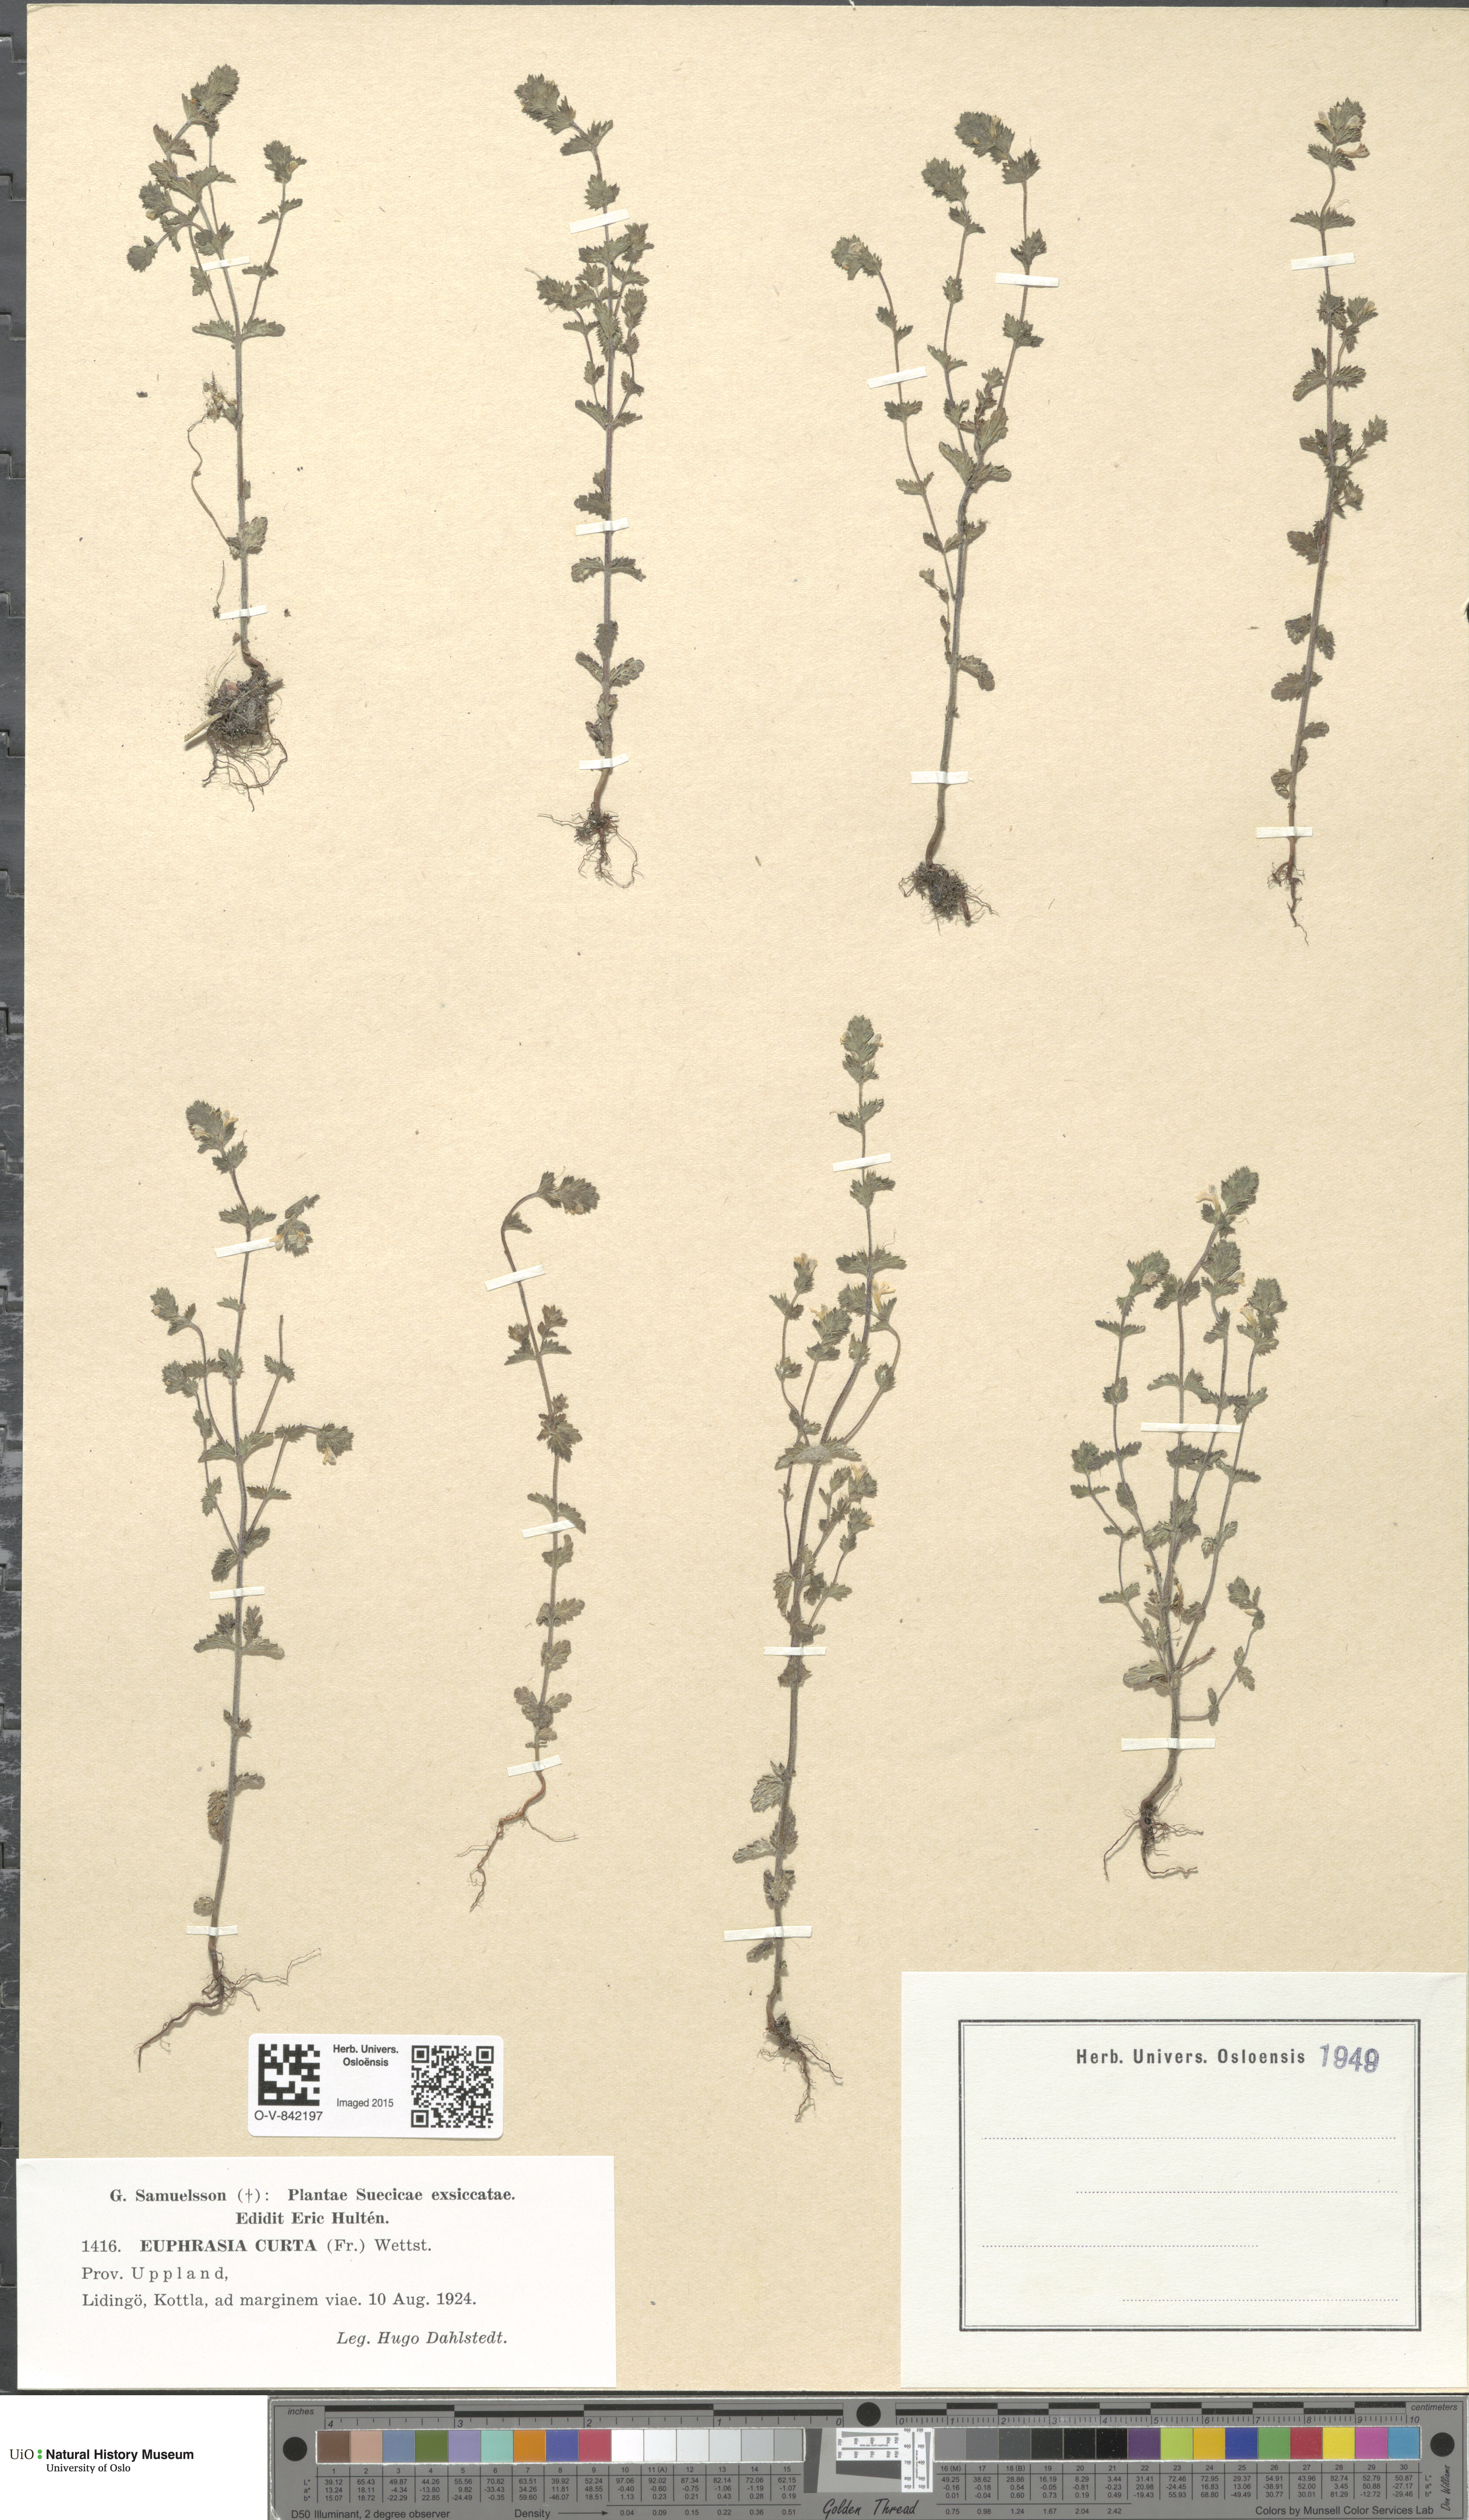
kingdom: Plantae
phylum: Tracheophyta
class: Magnoliopsida
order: Lamiales
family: Orobanchaceae
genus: Euphrasia
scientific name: Euphrasia micrantha
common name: Northern eyebright
